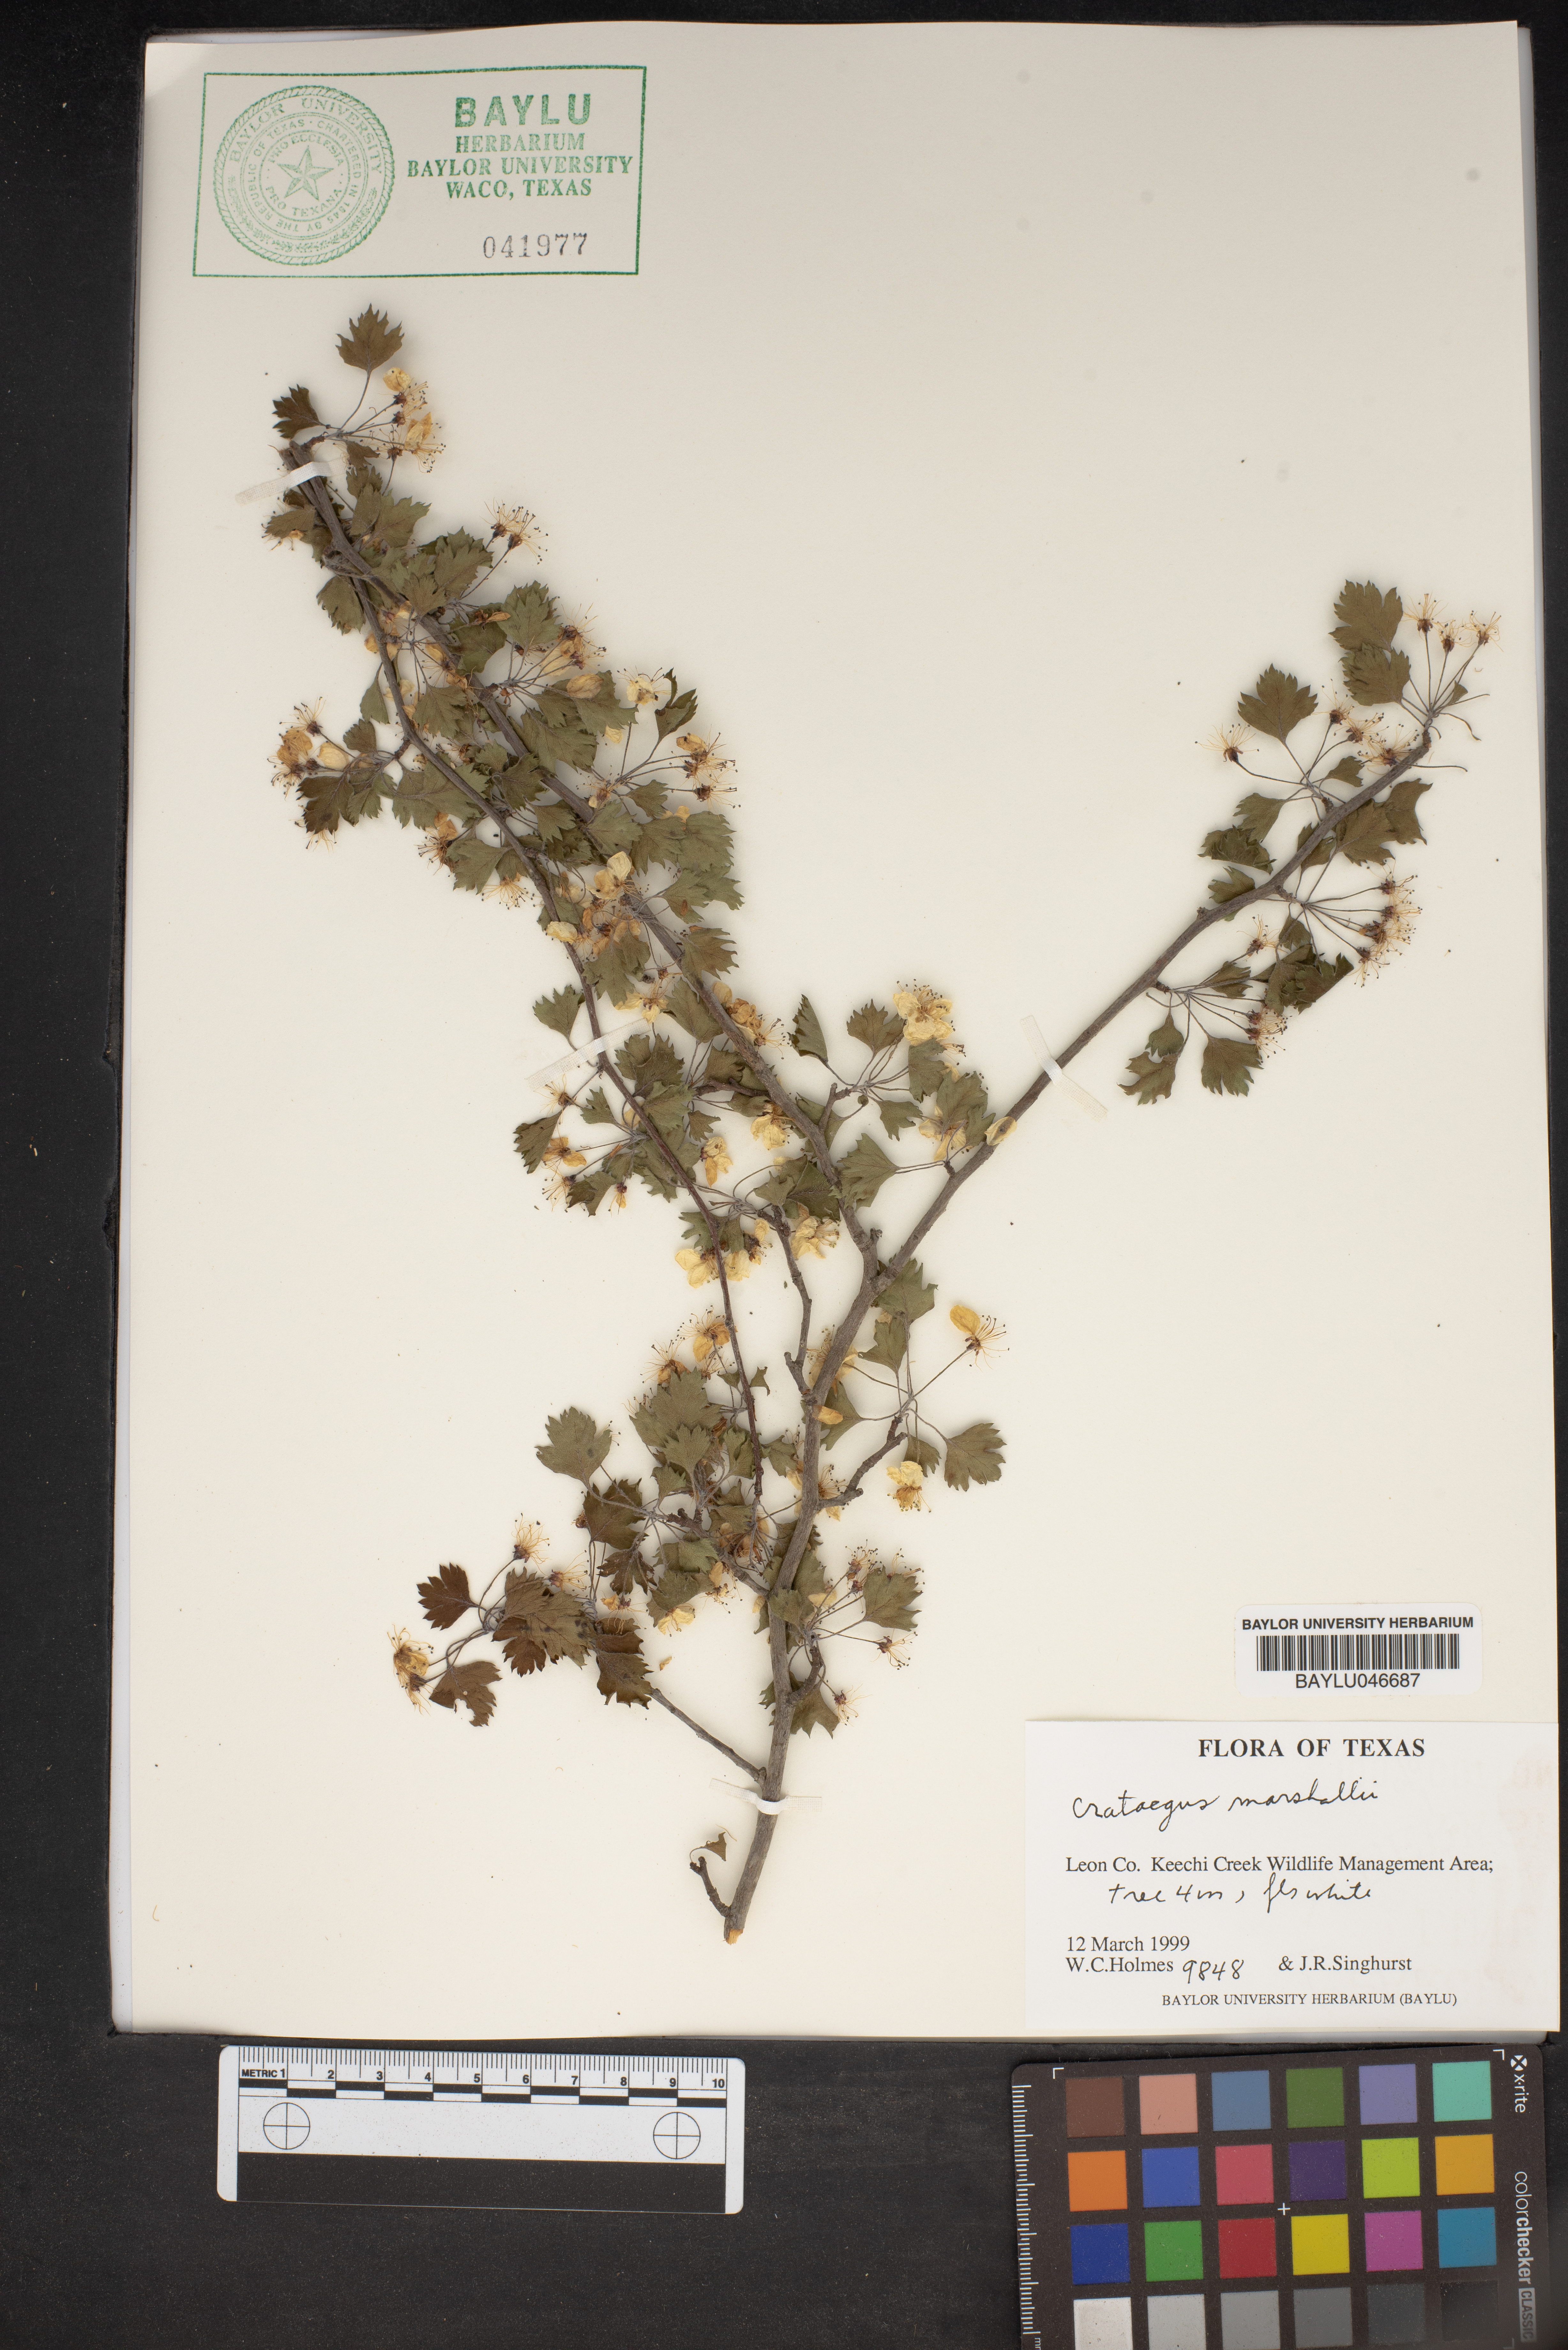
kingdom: Plantae
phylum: Tracheophyta
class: Magnoliopsida
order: Rosales
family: Rosaceae
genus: Crataegus
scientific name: Crataegus marshallii
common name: Parsley-hawthorn
